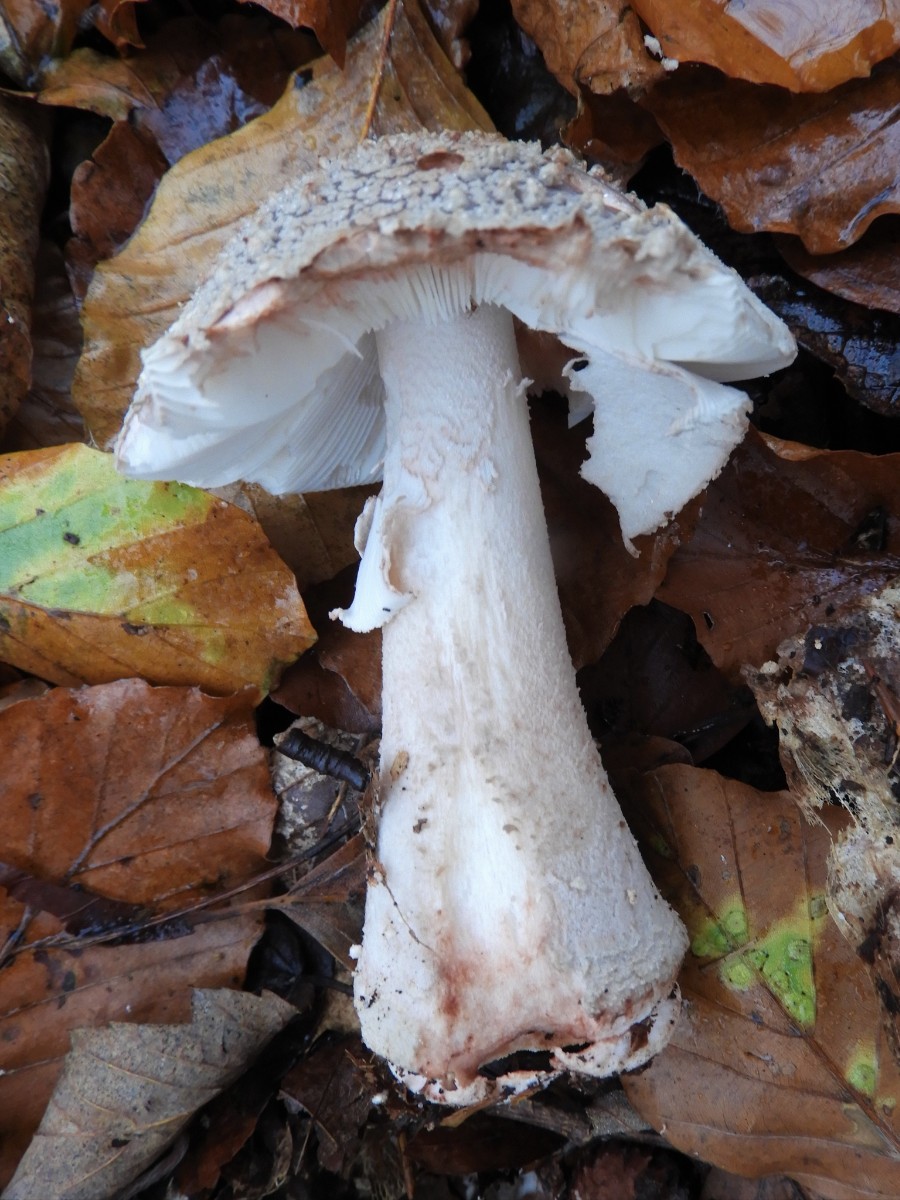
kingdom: Fungi
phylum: Basidiomycota
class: Agaricomycetes
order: Agaricales
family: Amanitaceae
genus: Amanita
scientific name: Amanita
